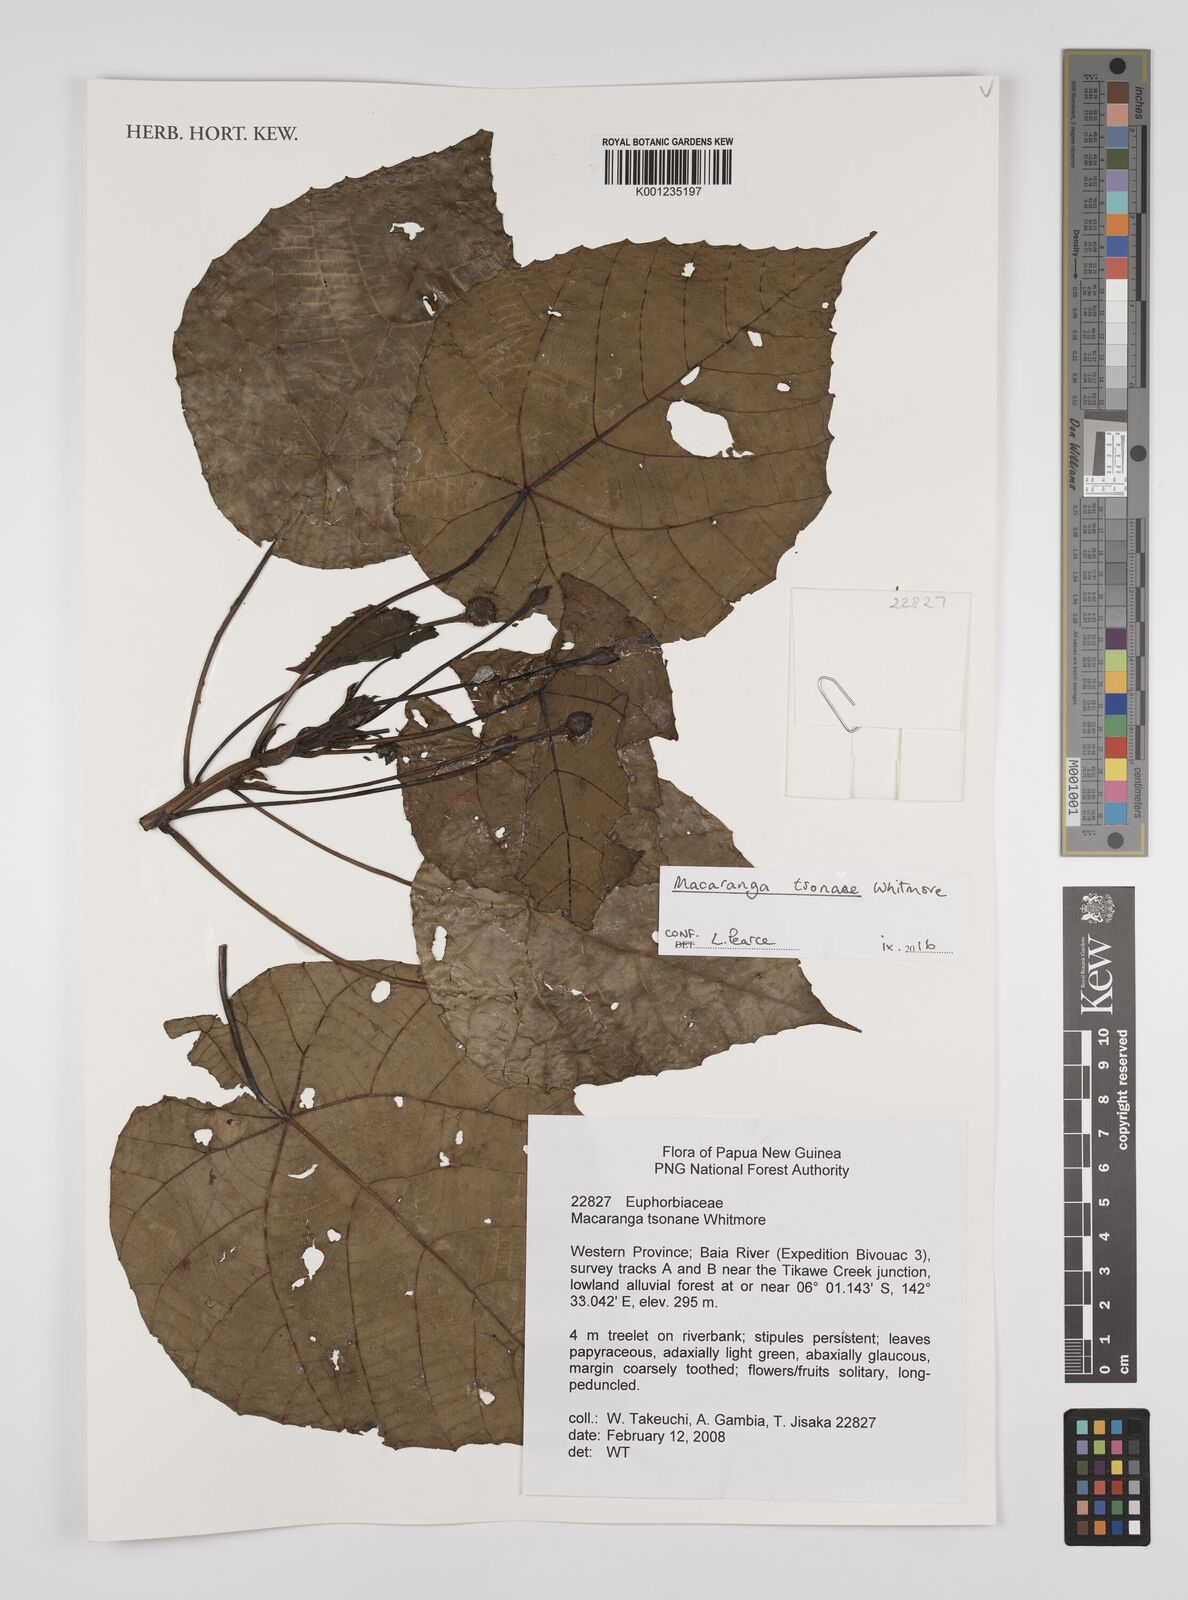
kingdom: Plantae
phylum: Tracheophyta
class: Magnoliopsida
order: Malpighiales
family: Euphorbiaceae
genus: Macaranga
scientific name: Macaranga tsonane
